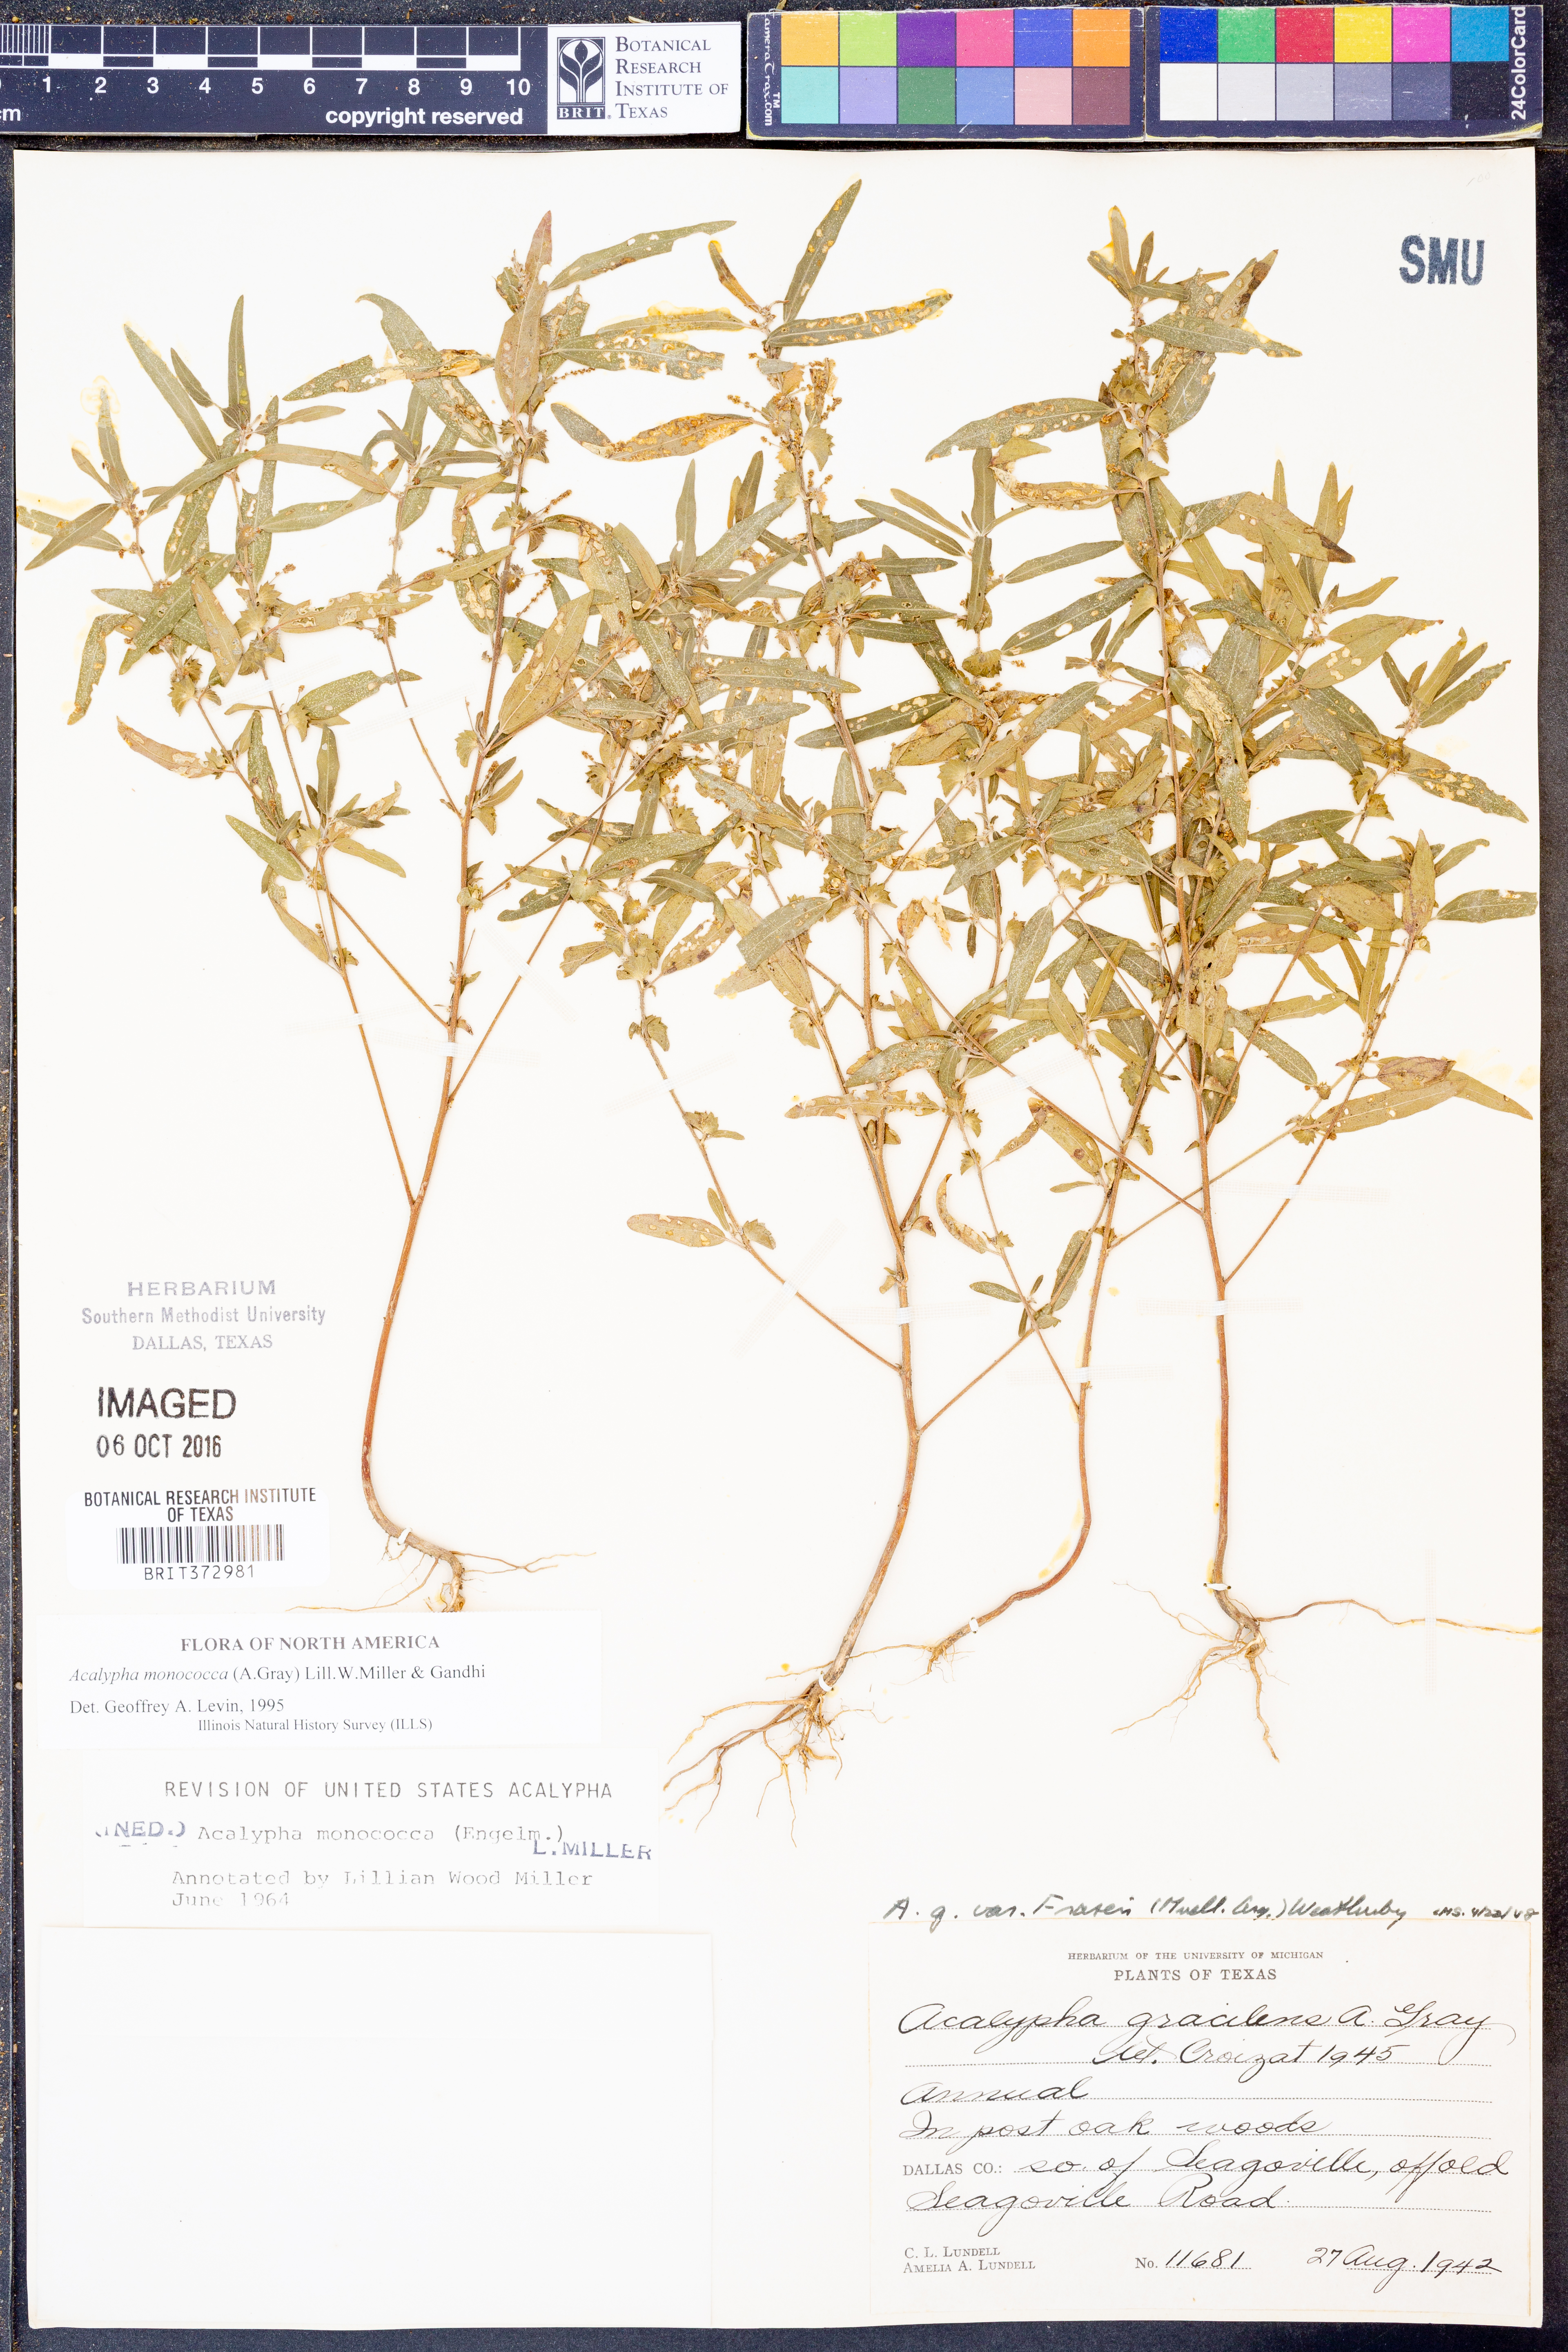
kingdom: Plantae
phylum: Tracheophyta
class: Magnoliopsida
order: Malpighiales
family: Euphorbiaceae
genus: Acalypha
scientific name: Acalypha monococca
